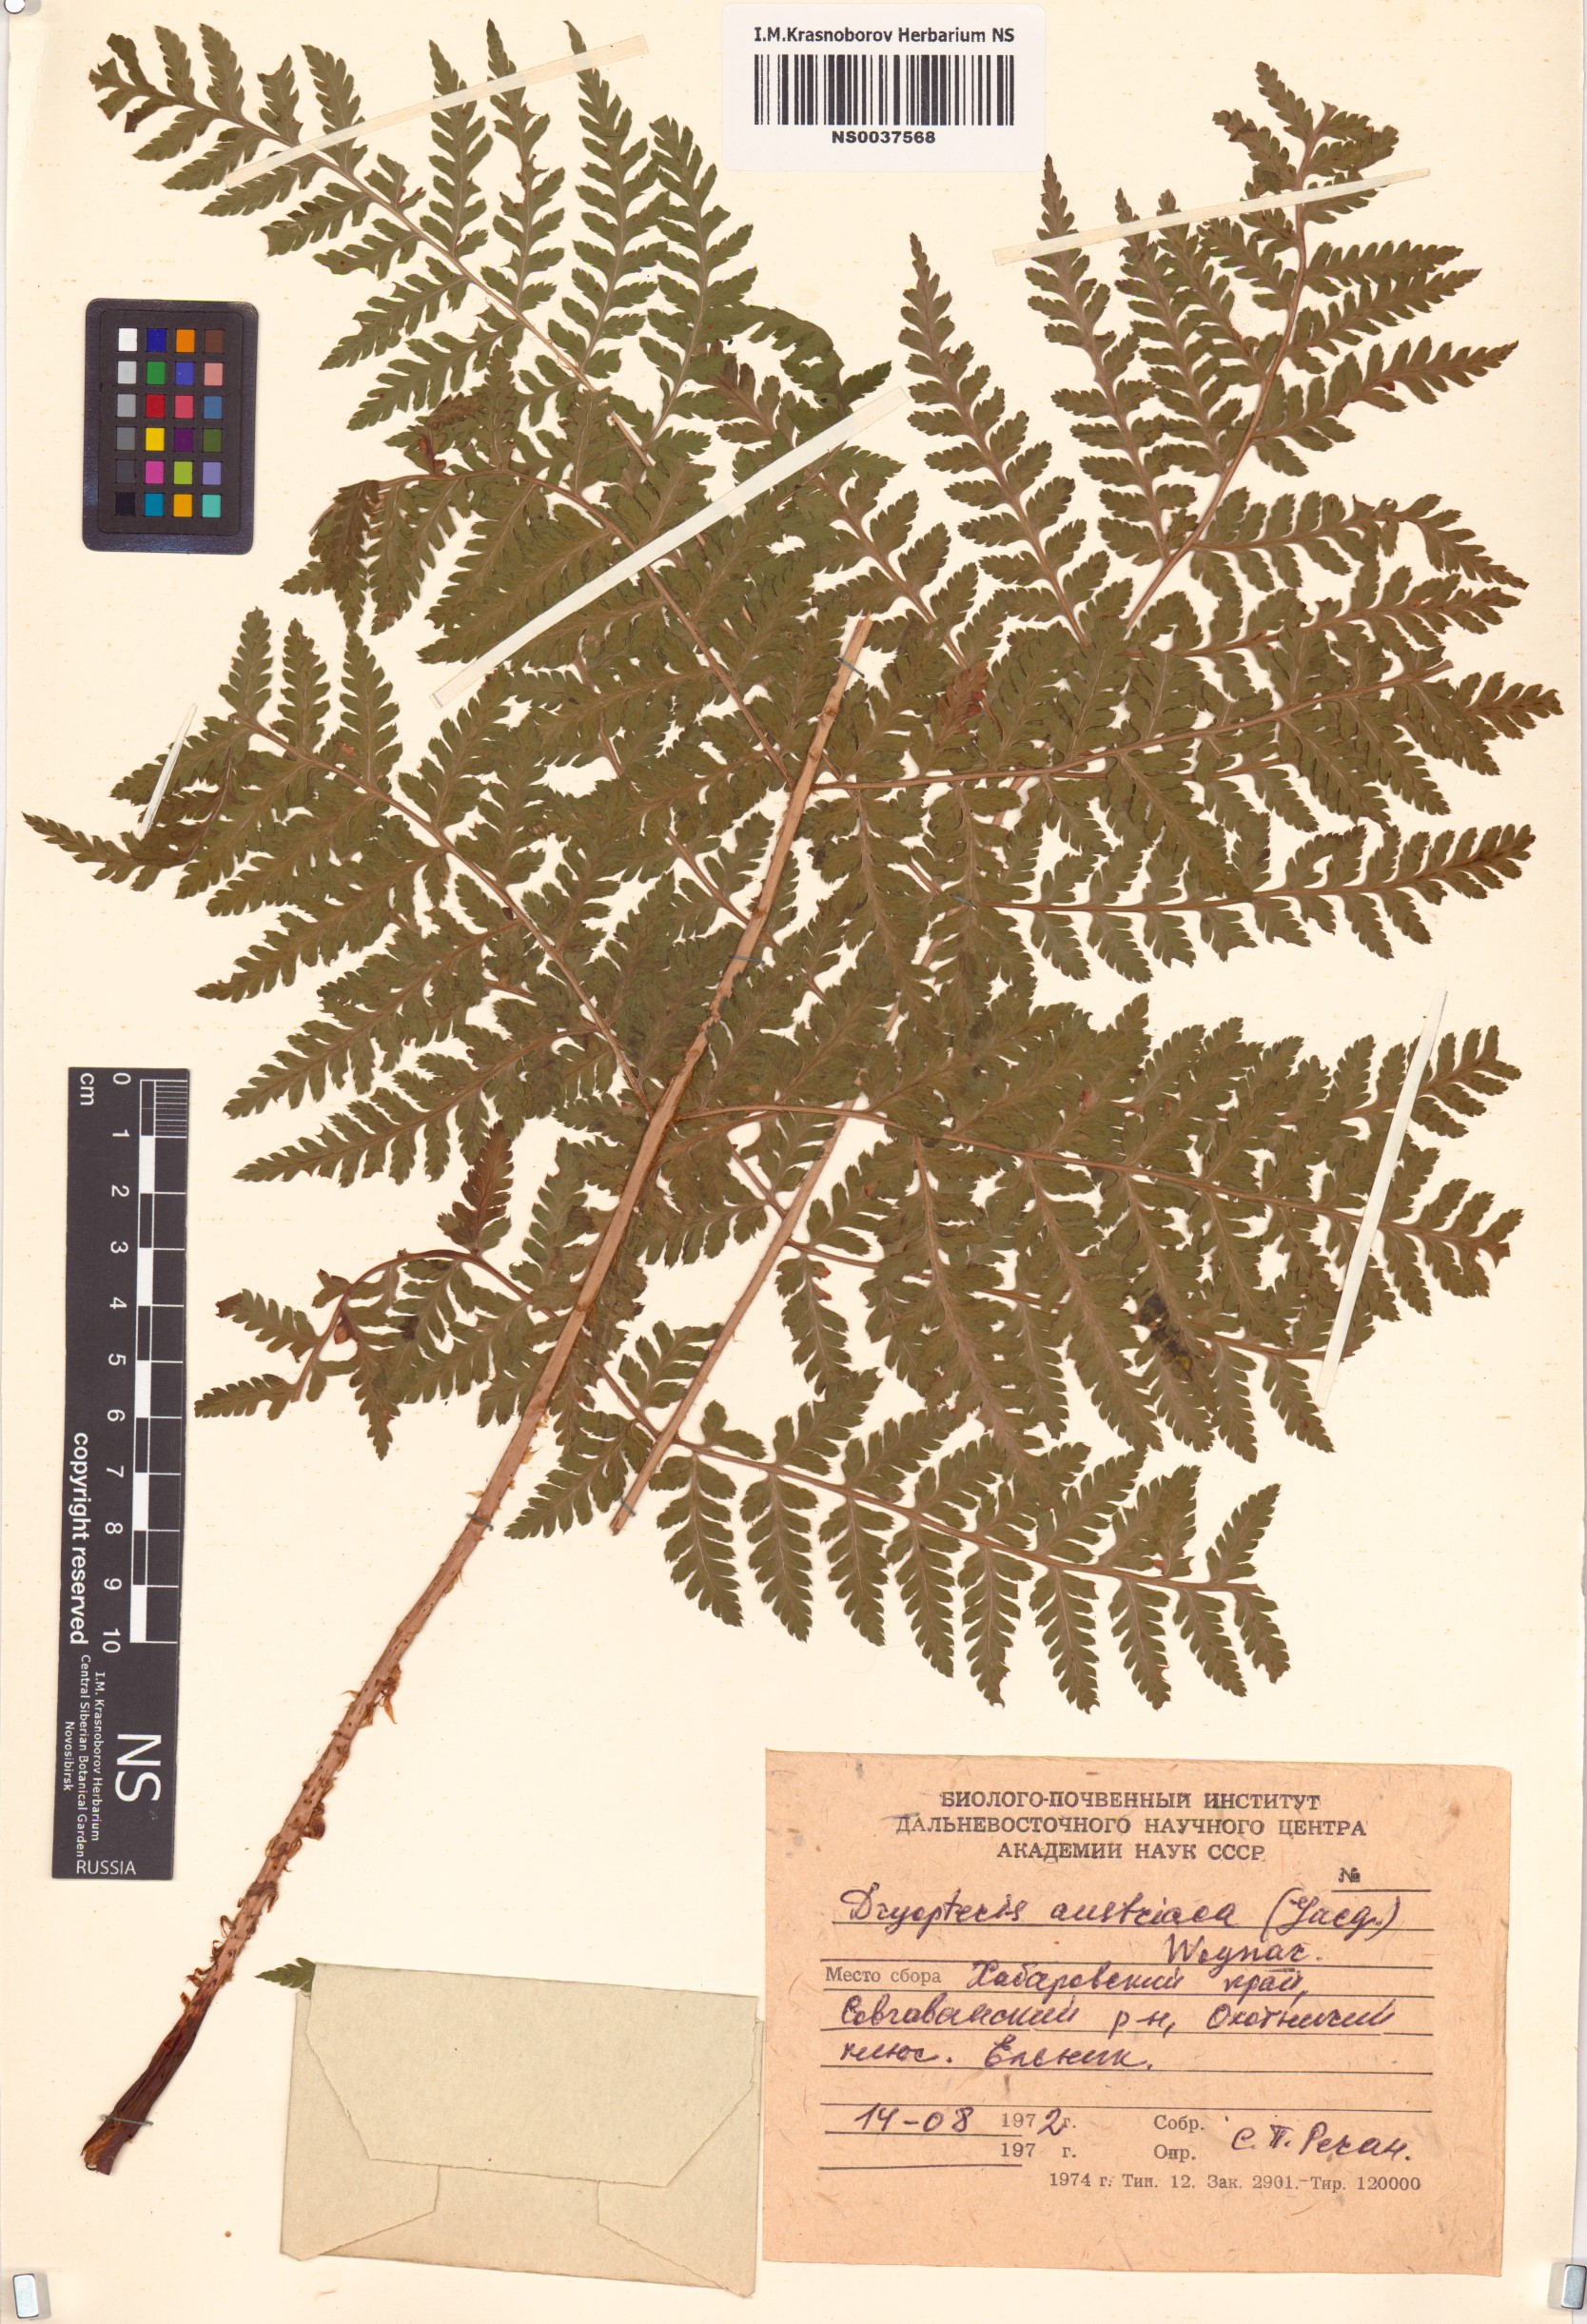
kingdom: Plantae
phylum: Tracheophyta
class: Polypodiopsida
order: Polypodiales
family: Dryopteridaceae
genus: Dryopteris
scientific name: Dryopteris dilatata
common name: Broad buckler-fern
